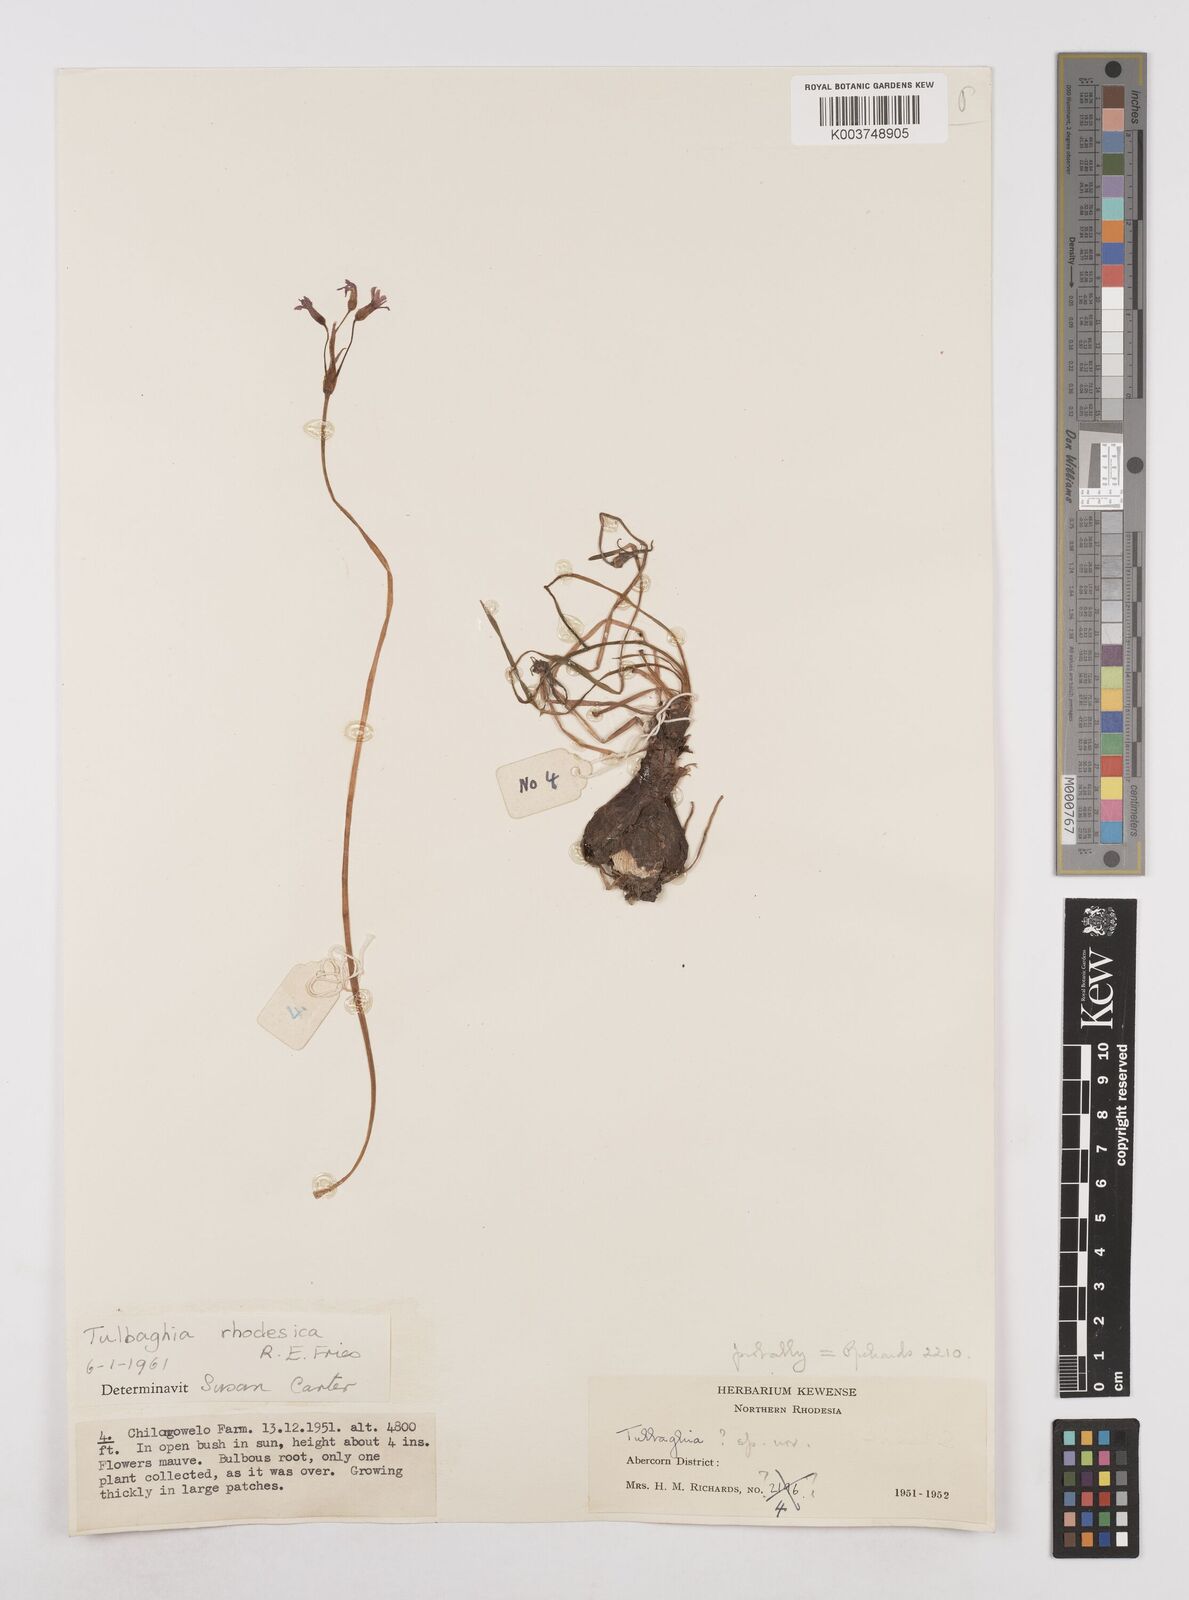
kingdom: Plantae
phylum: Tracheophyta
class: Liliopsida
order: Asparagales
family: Amaryllidaceae
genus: Tulbaghia
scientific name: Tulbaghia rhodesica
